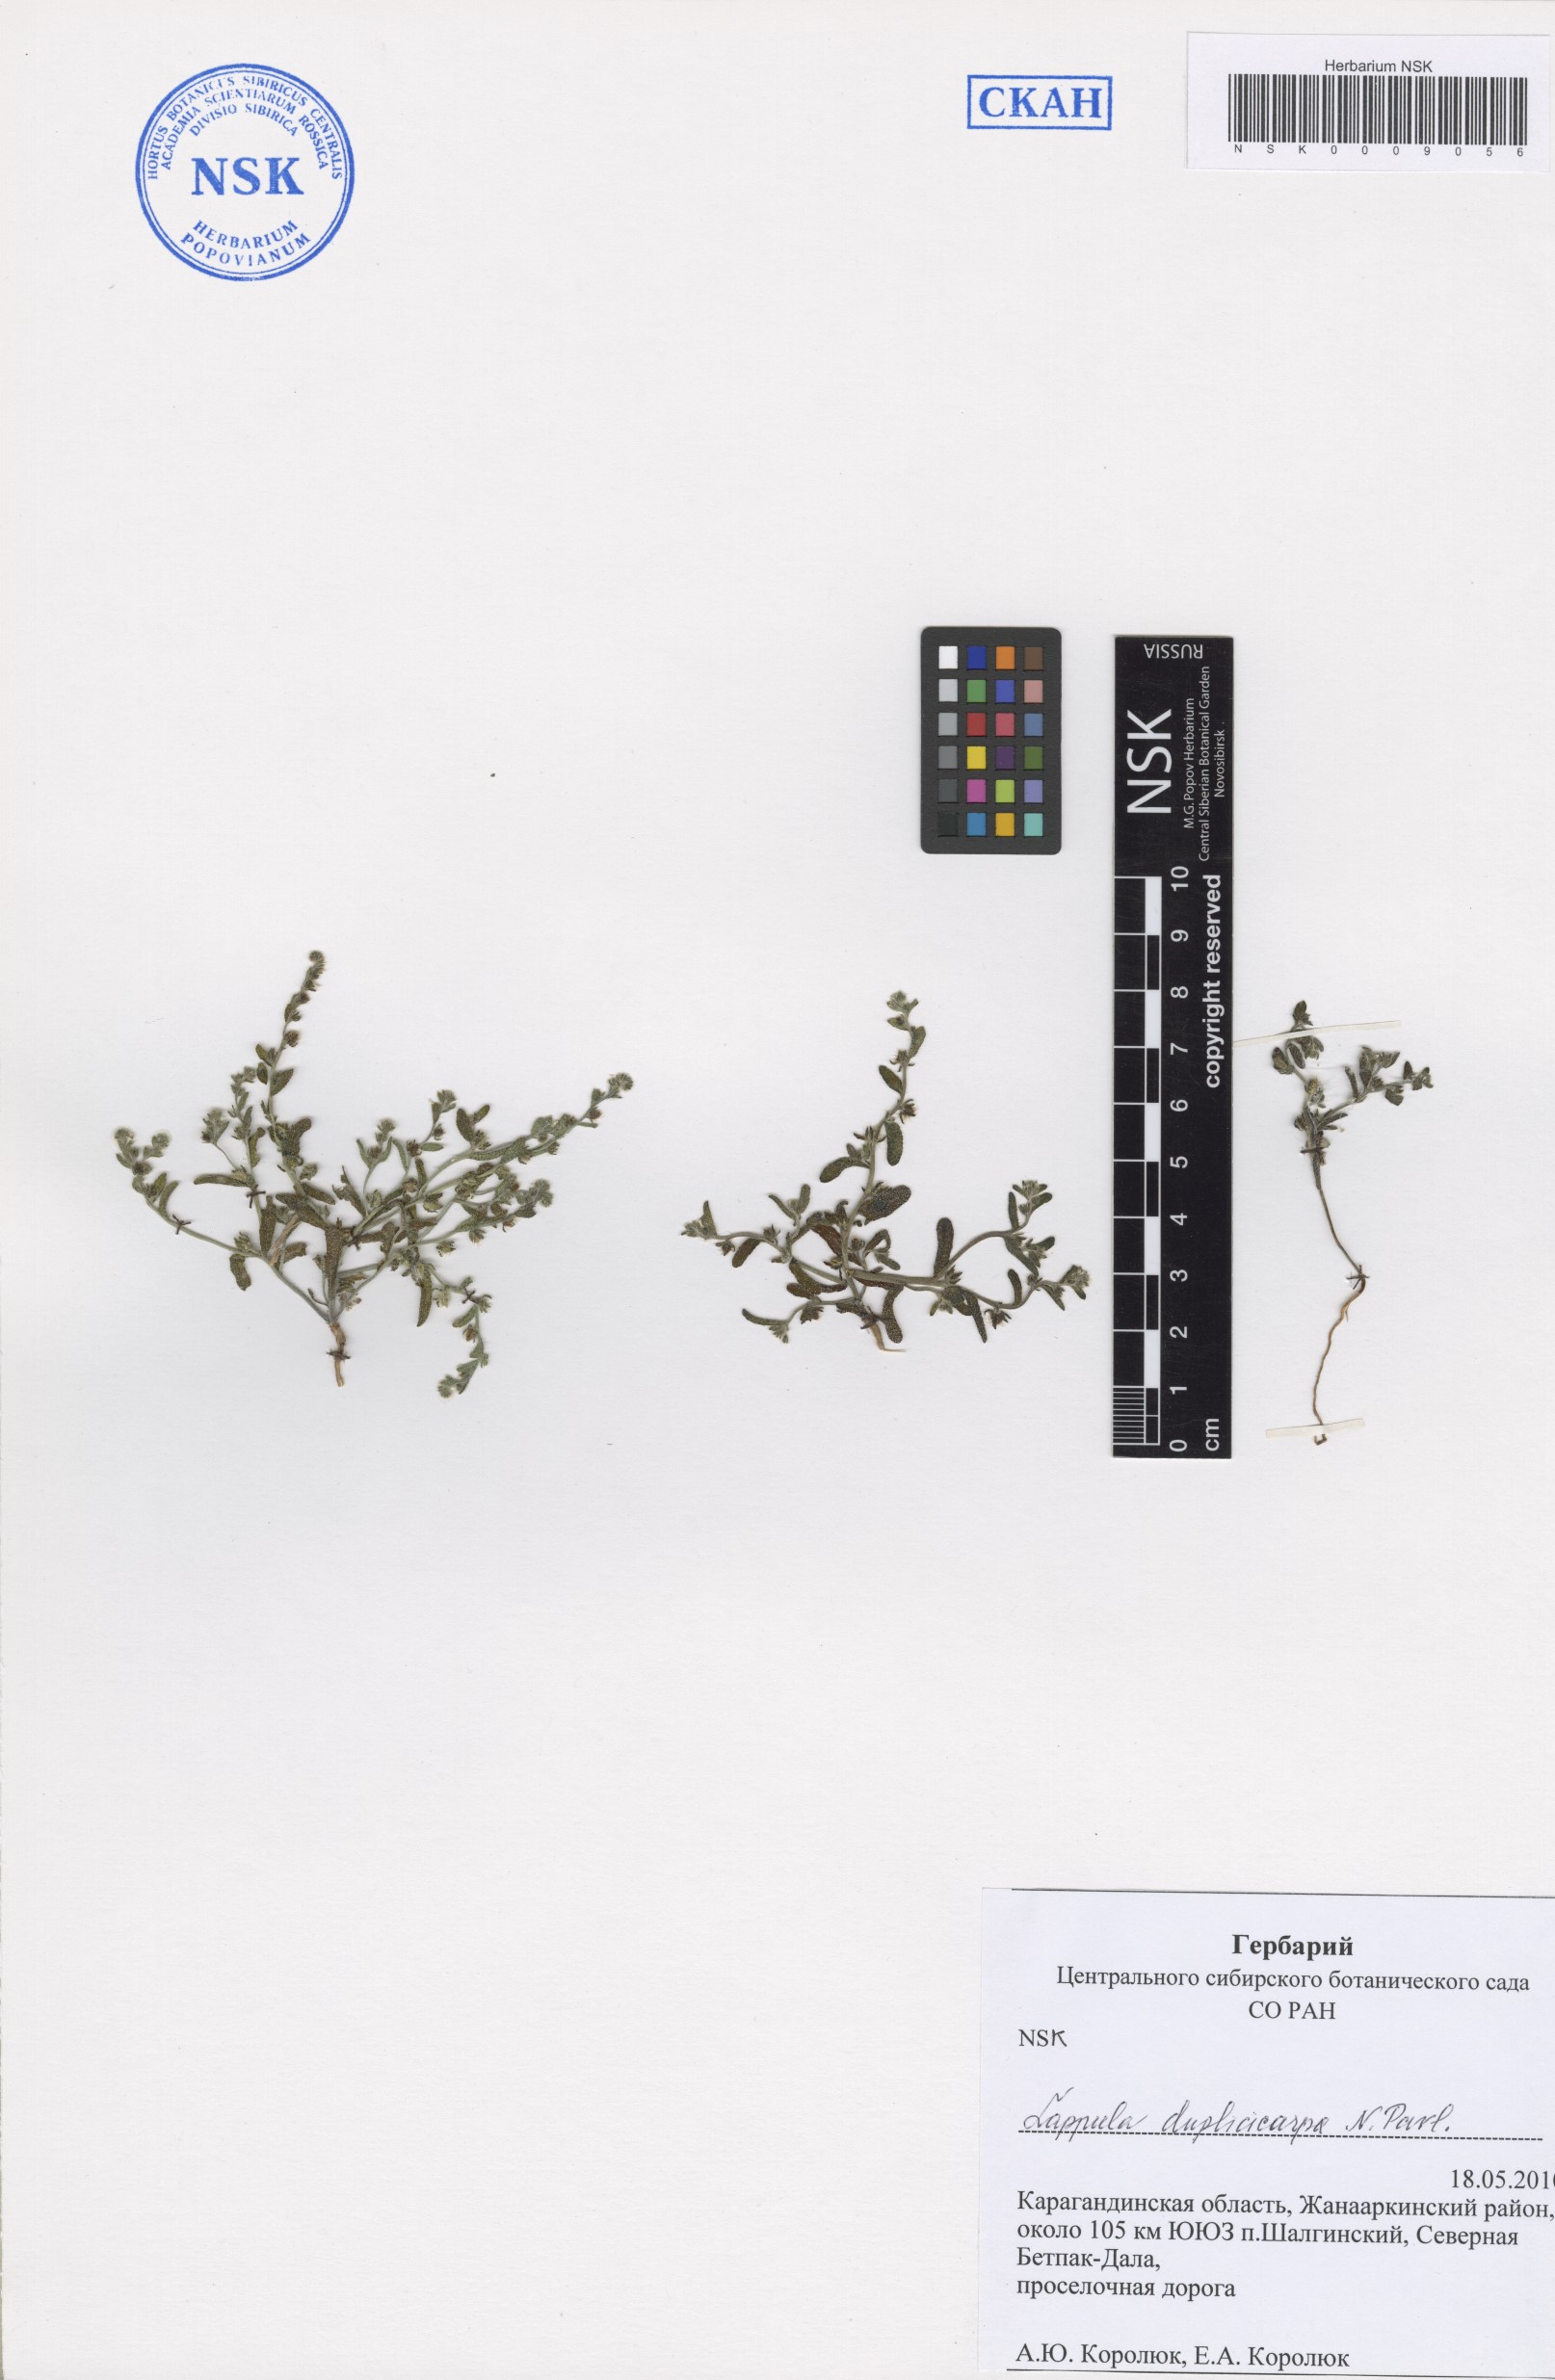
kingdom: Plantae
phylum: Tracheophyta
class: Magnoliopsida
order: Boraginales
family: Boraginaceae
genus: Lappula
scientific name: Lappula duplicicarpa
